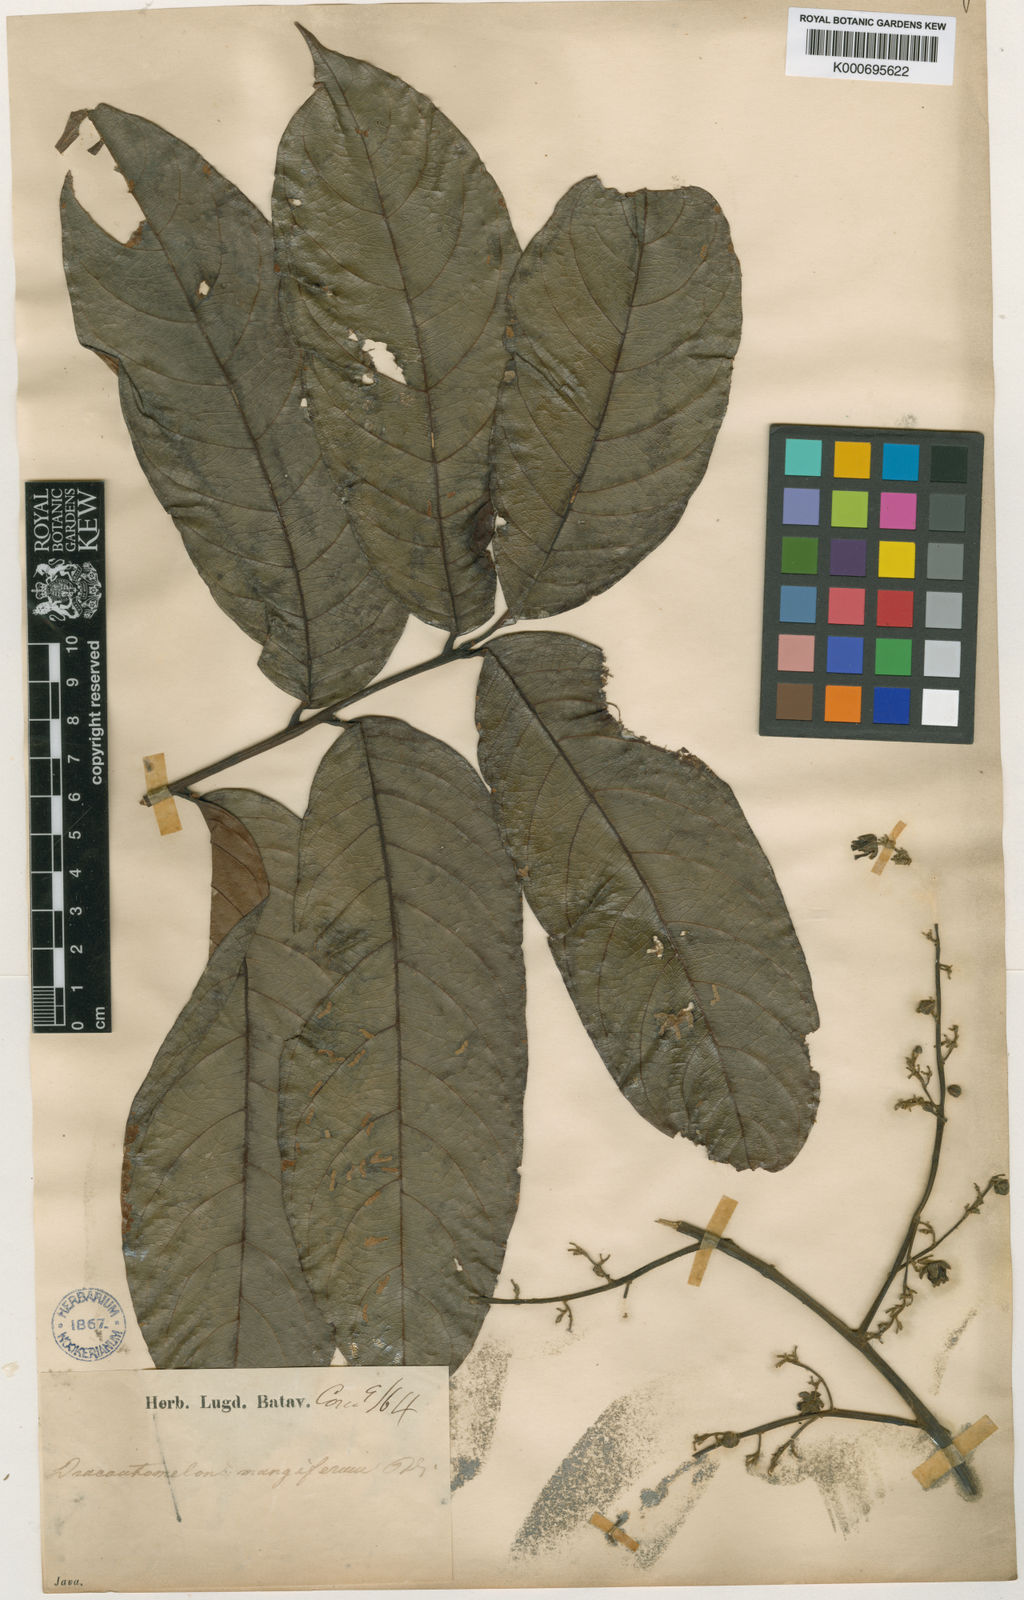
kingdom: Plantae
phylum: Tracheophyta
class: Magnoliopsida
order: Sapindales
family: Anacardiaceae
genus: Dracontomelon
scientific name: Dracontomelon dao
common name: Argus pheasant-tree
